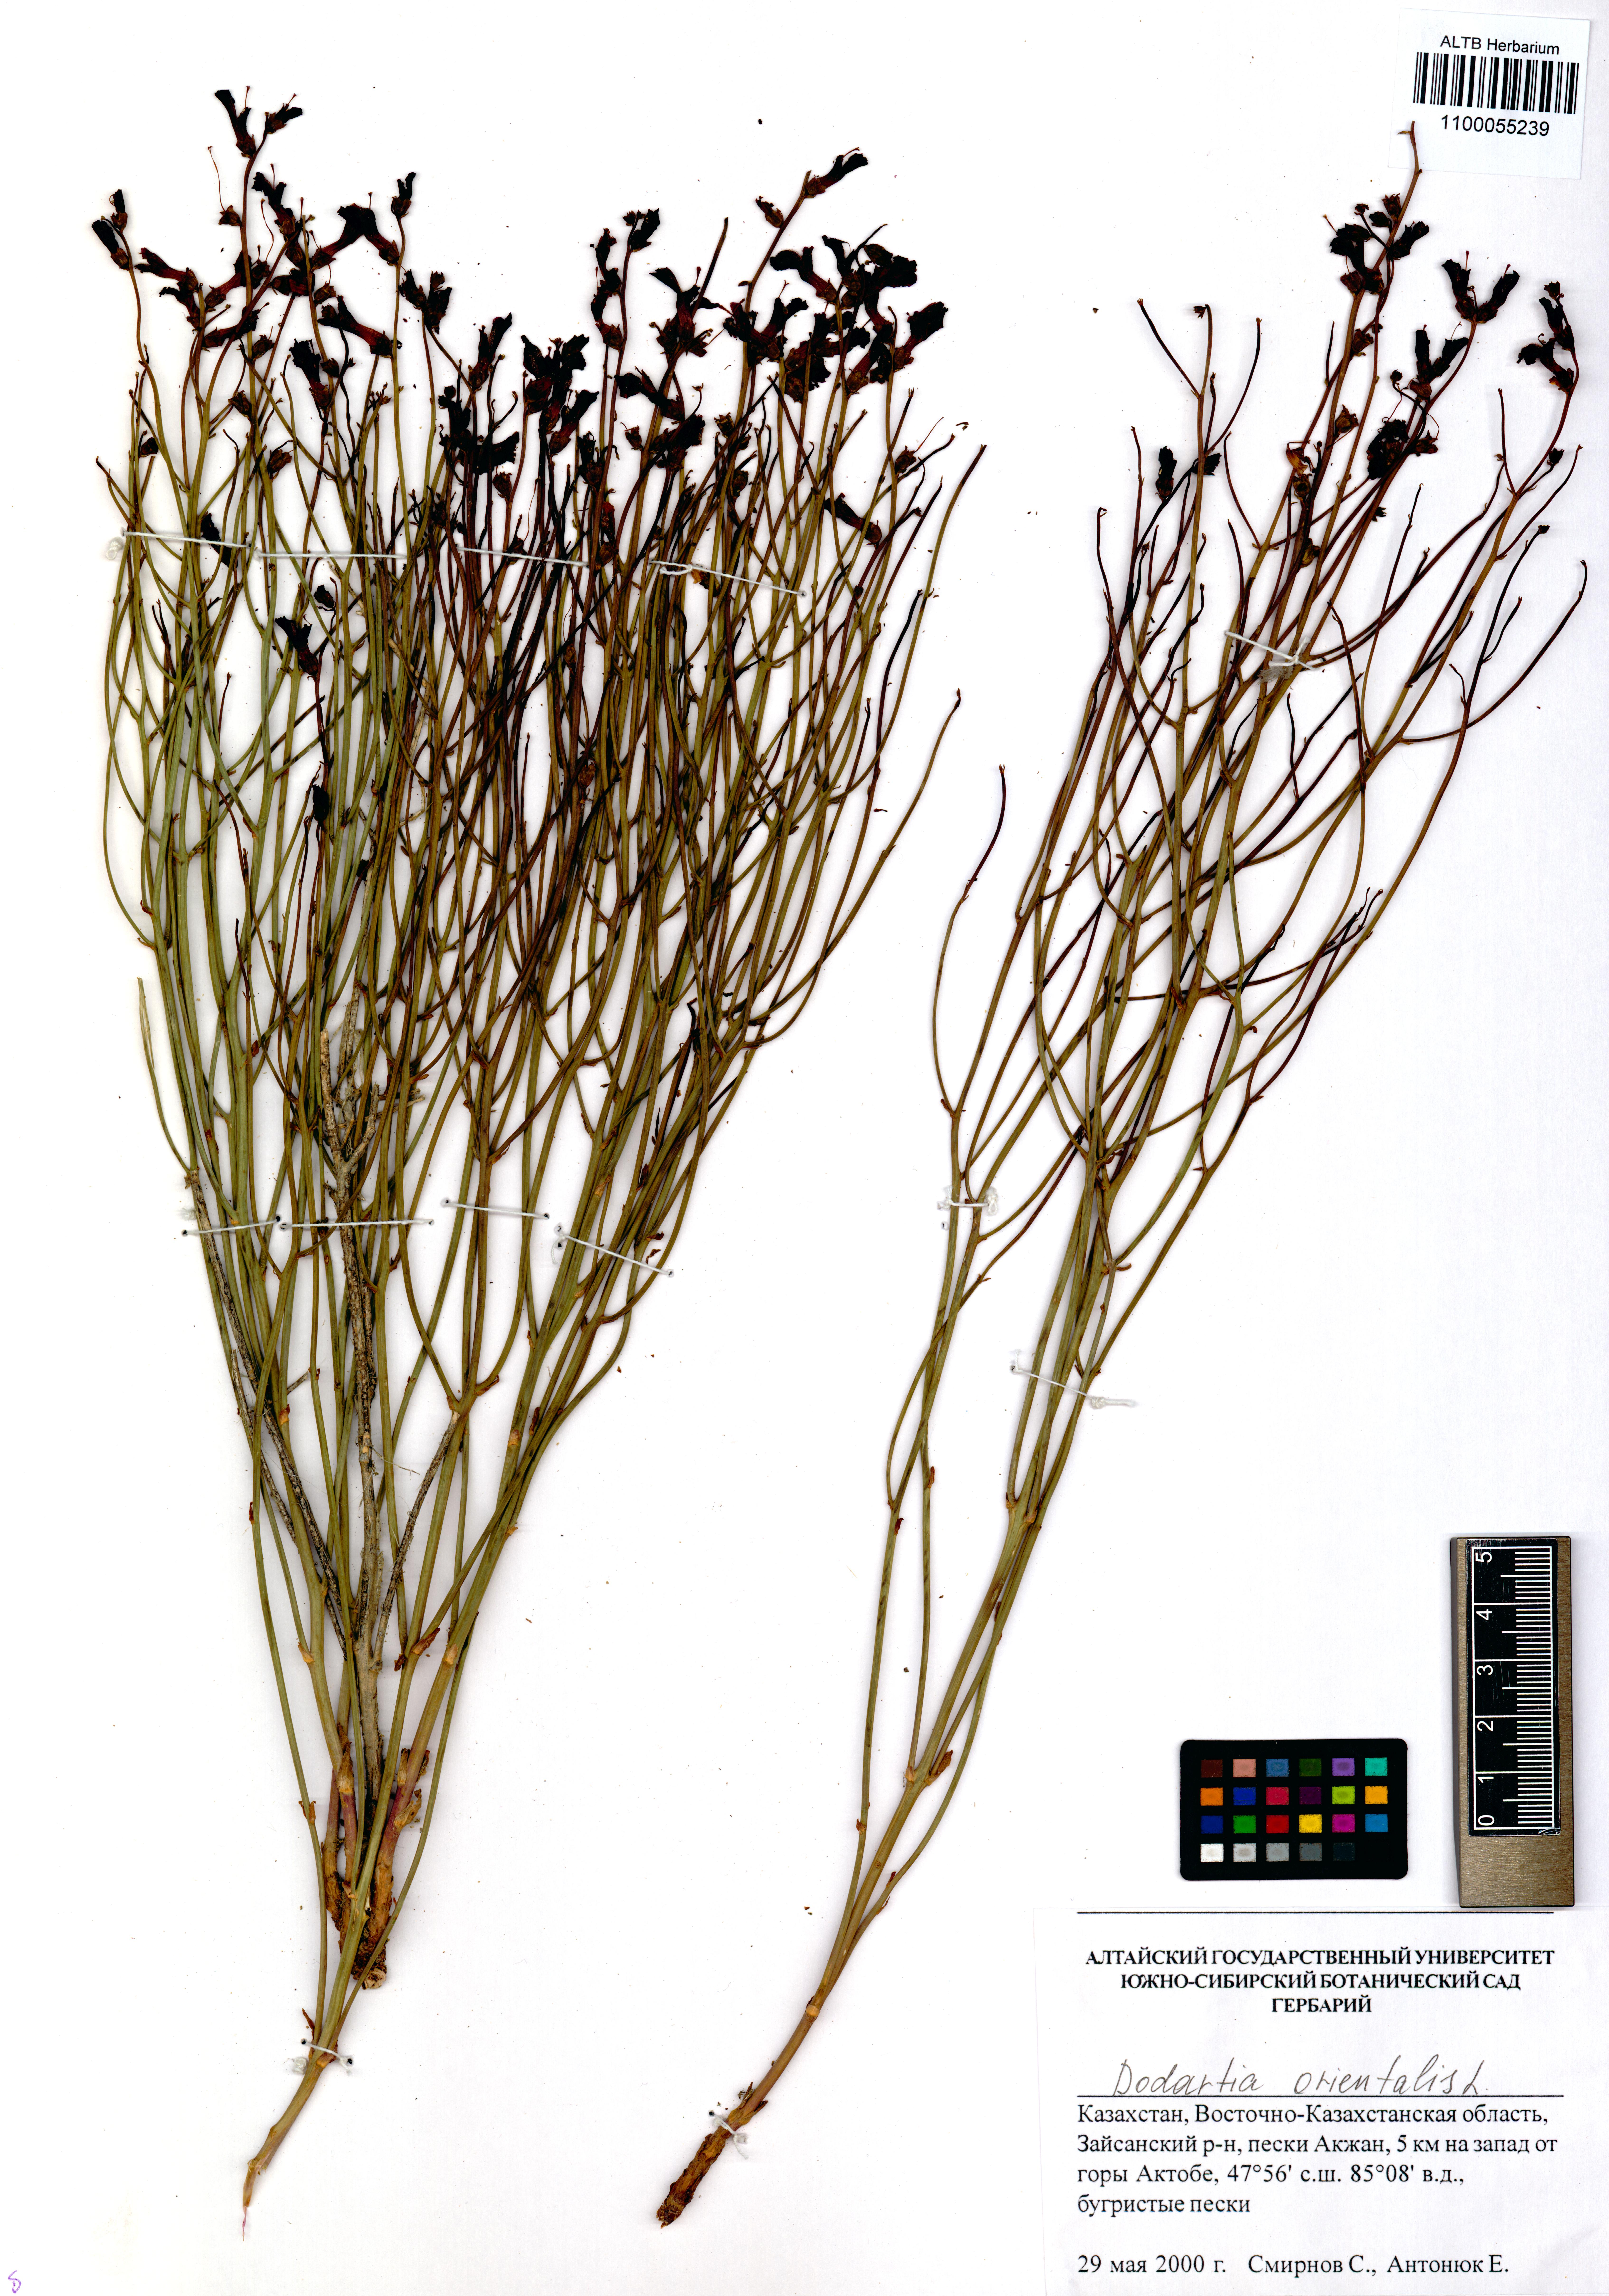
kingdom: Plantae
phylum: Tracheophyta
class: Magnoliopsida
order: Lamiales
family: Mazaceae
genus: Dodartia
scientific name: Dodartia orientalis
